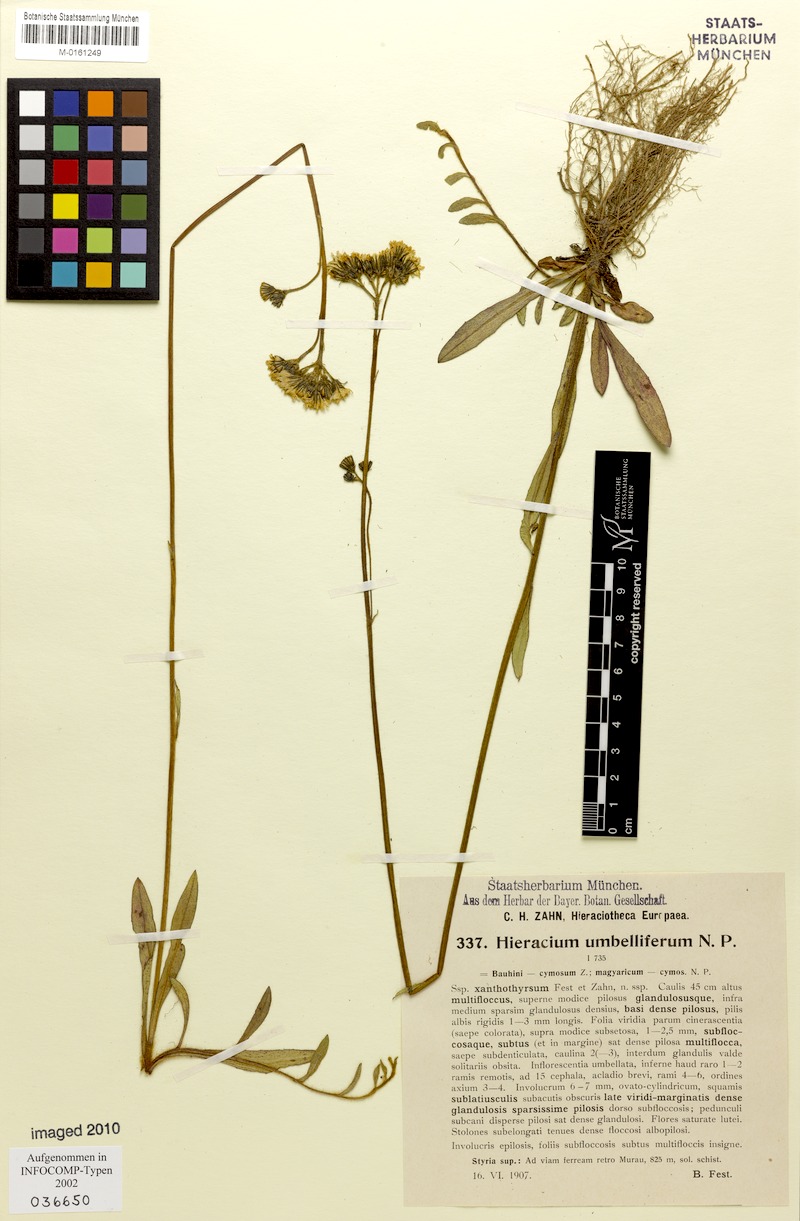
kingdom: Plantae
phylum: Tracheophyta
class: Magnoliopsida
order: Asterales
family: Asteraceae
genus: Pilosella
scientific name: Pilosella densiflora
